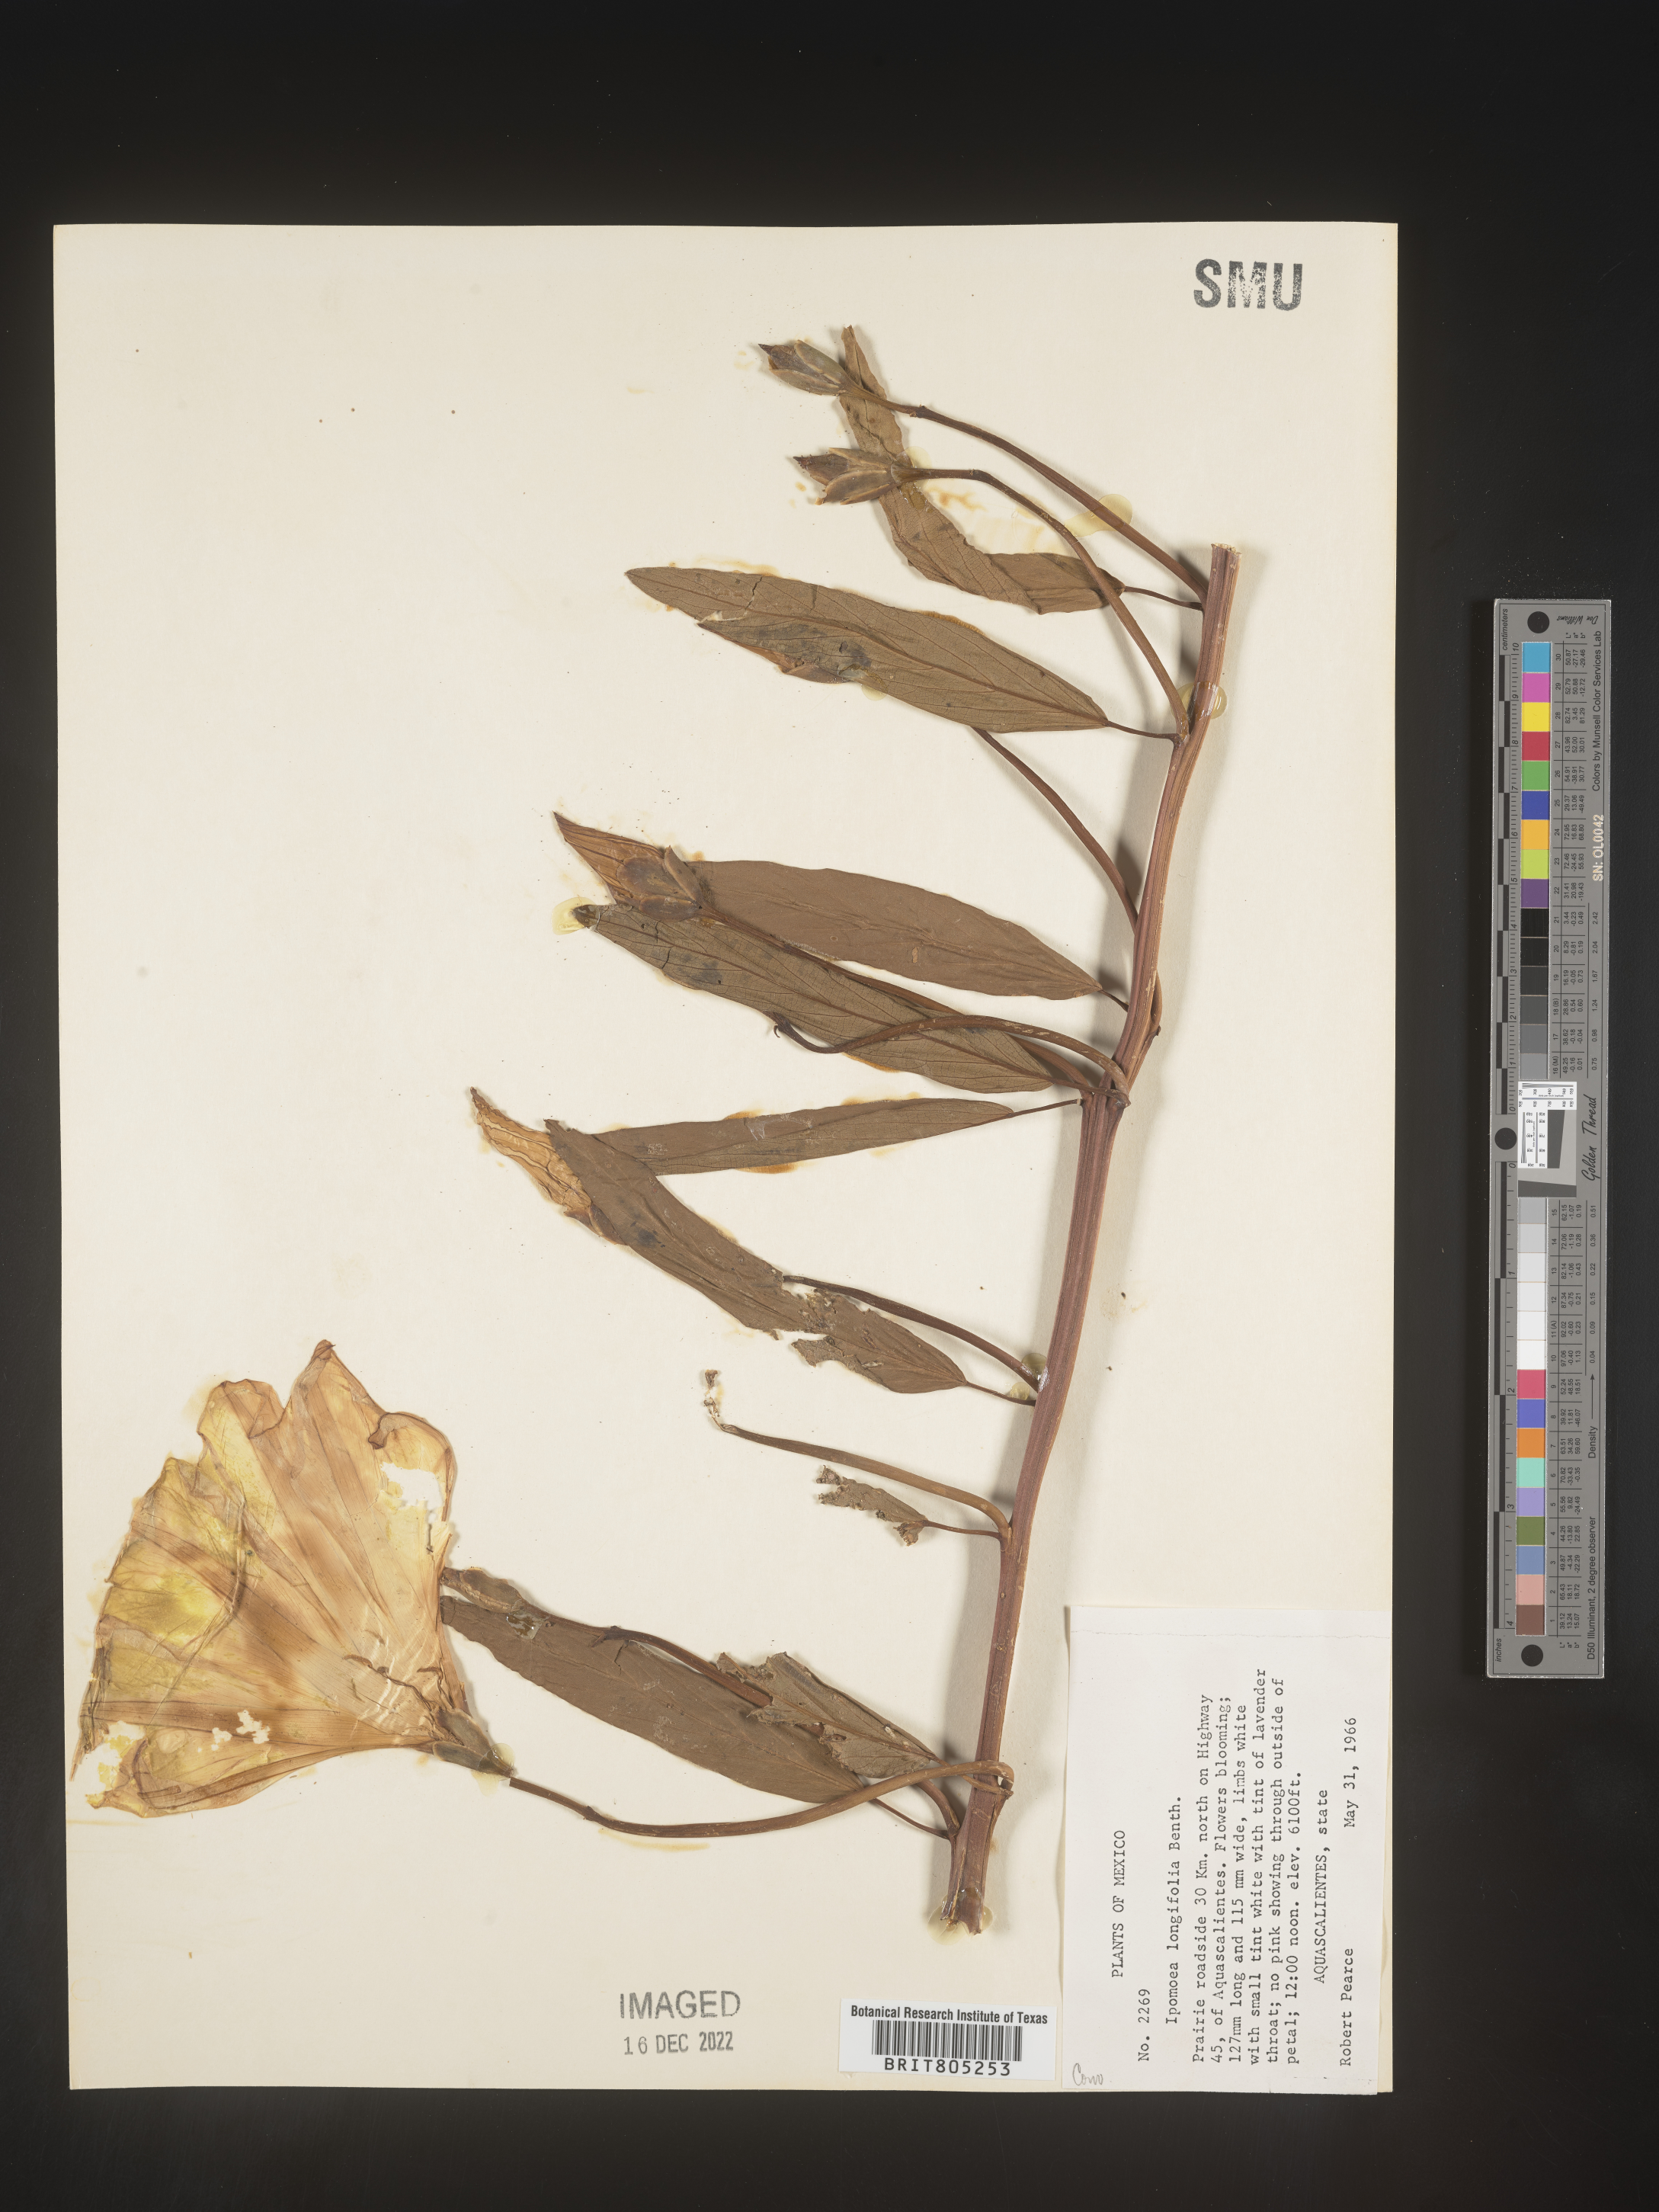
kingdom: Plantae
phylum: Tracheophyta
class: Magnoliopsida
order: Solanales
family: Convolvulaceae
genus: Ipomoea
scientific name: Ipomoea
